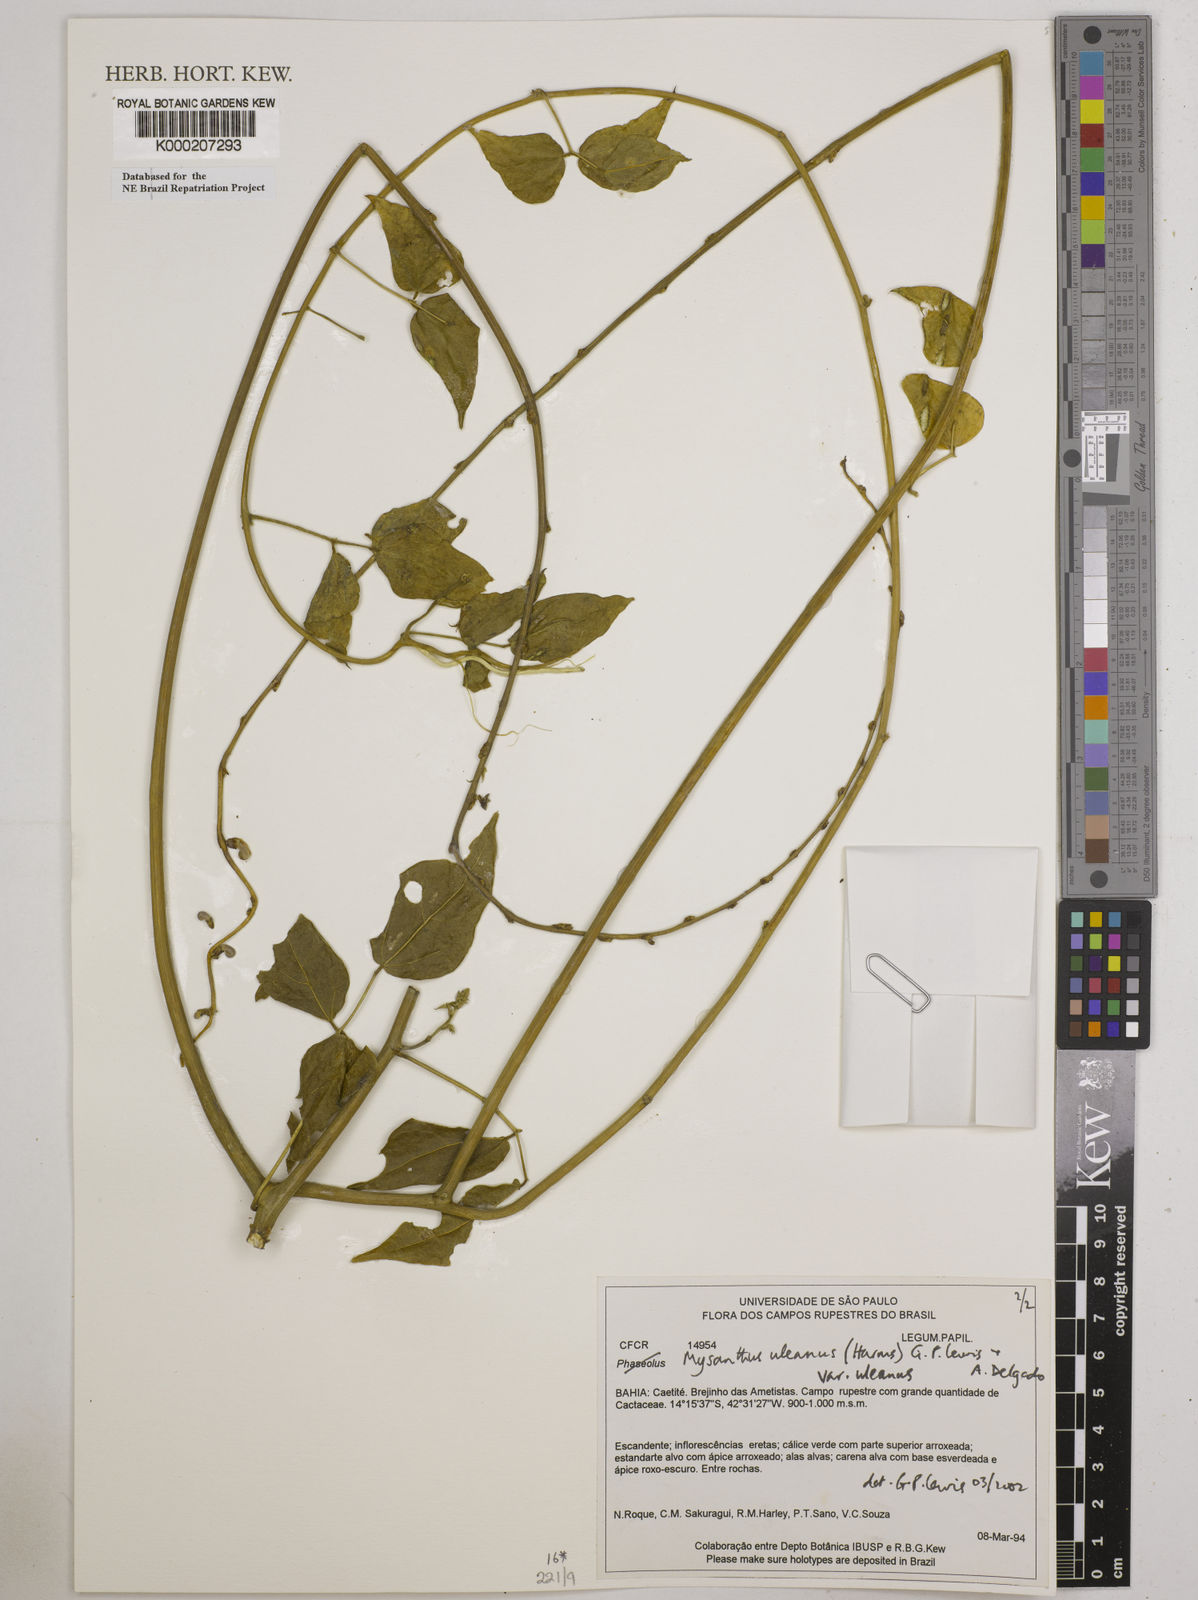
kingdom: Plantae
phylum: Tracheophyta
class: Magnoliopsida
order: Fabales
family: Fabaceae
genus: Mysanthus
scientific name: Mysanthus uleanus
